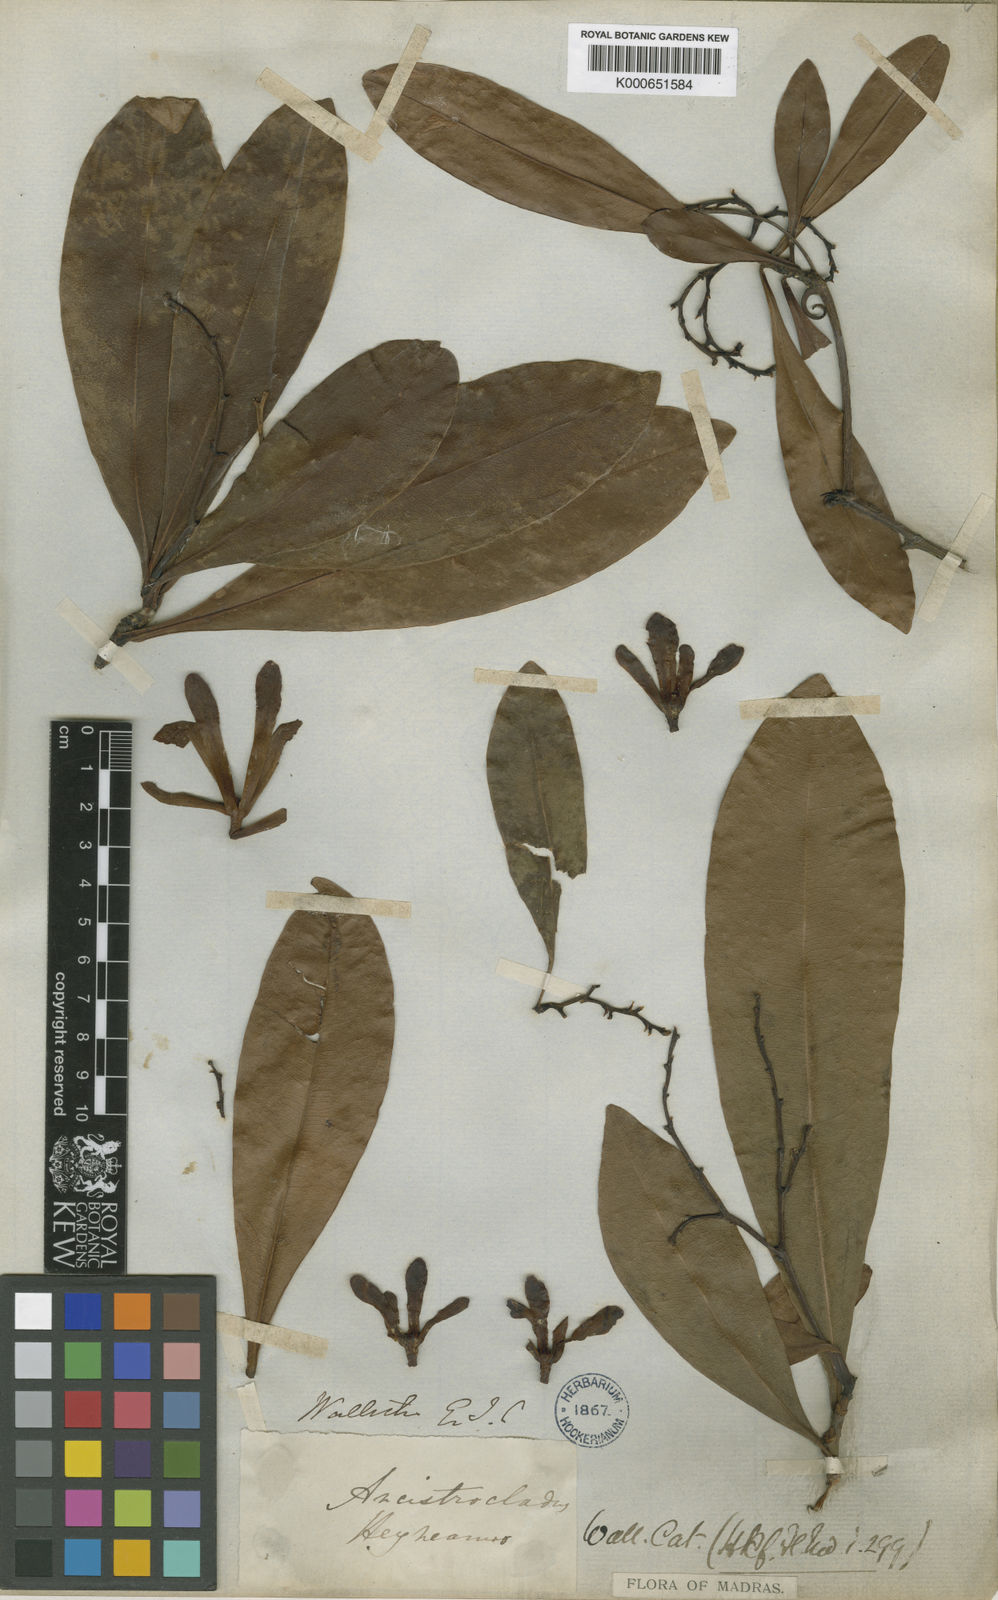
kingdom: Plantae
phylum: Tracheophyta
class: Magnoliopsida
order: Caryophyllales
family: Ancistrocladaceae
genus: Ancistrocladus
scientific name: Ancistrocladus heyneanus
